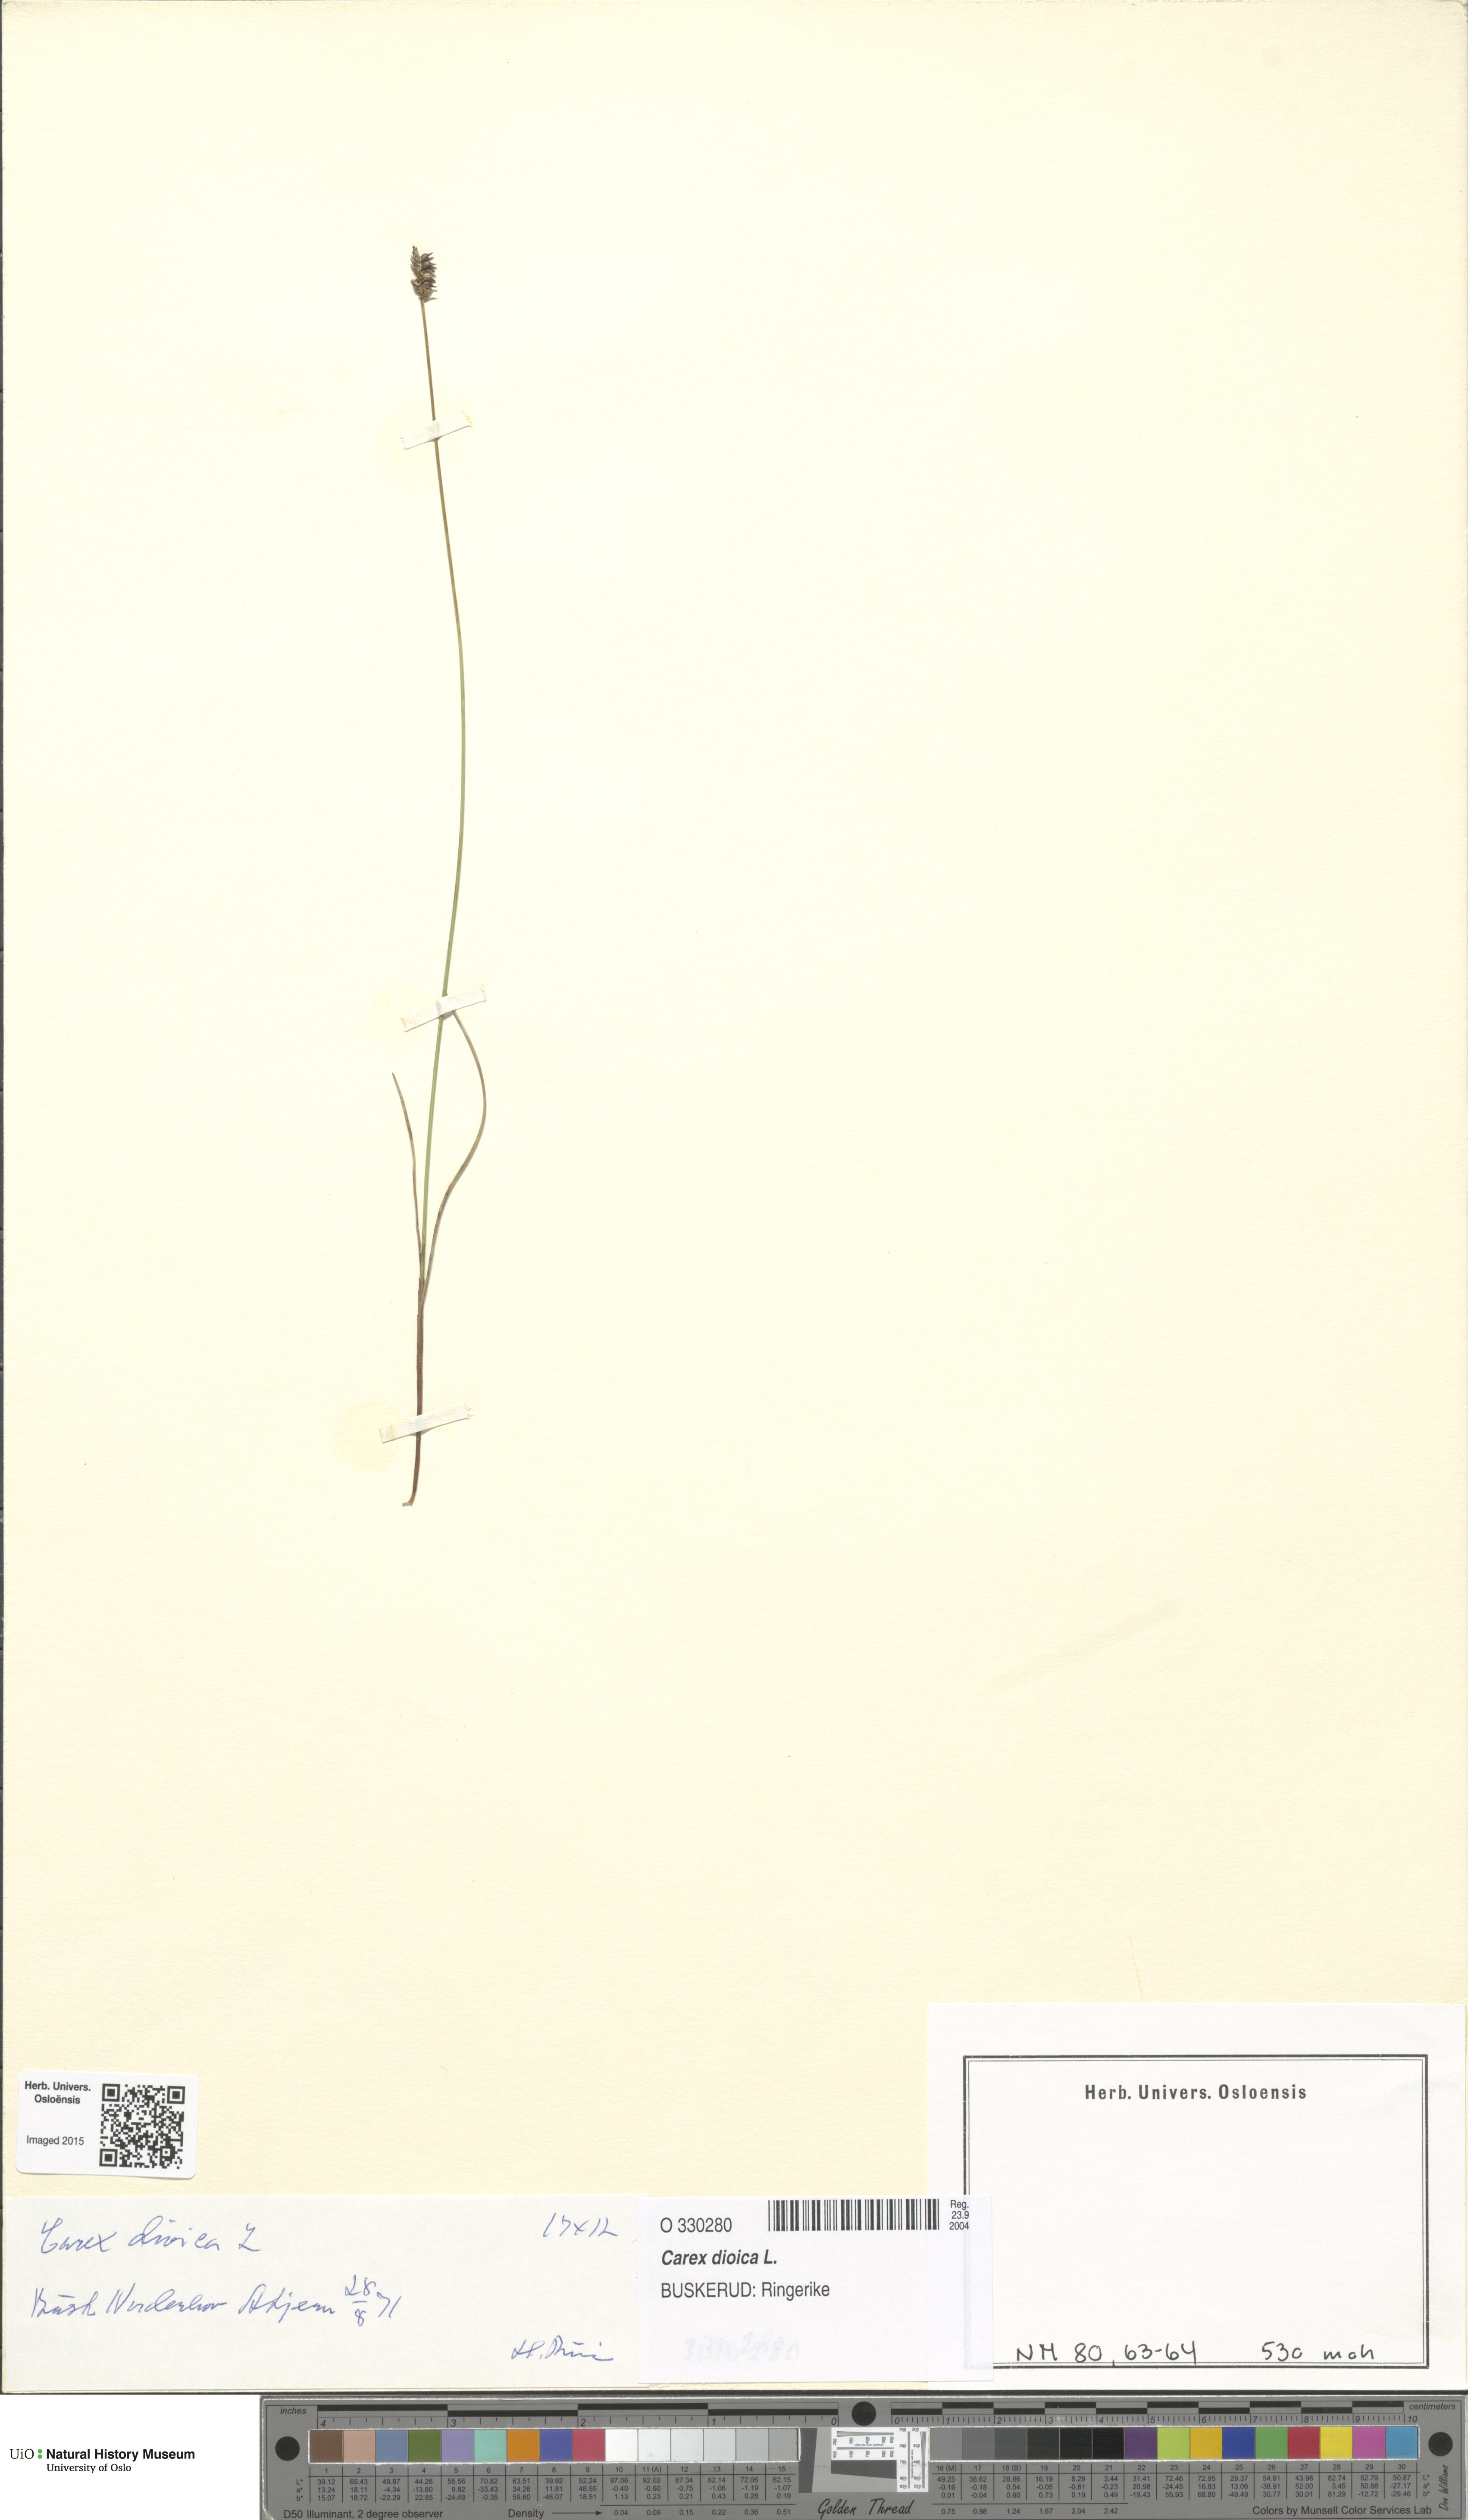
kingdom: Plantae
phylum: Tracheophyta
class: Liliopsida
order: Poales
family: Cyperaceae
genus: Carex
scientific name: Carex dioica
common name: Dioecious sedge
